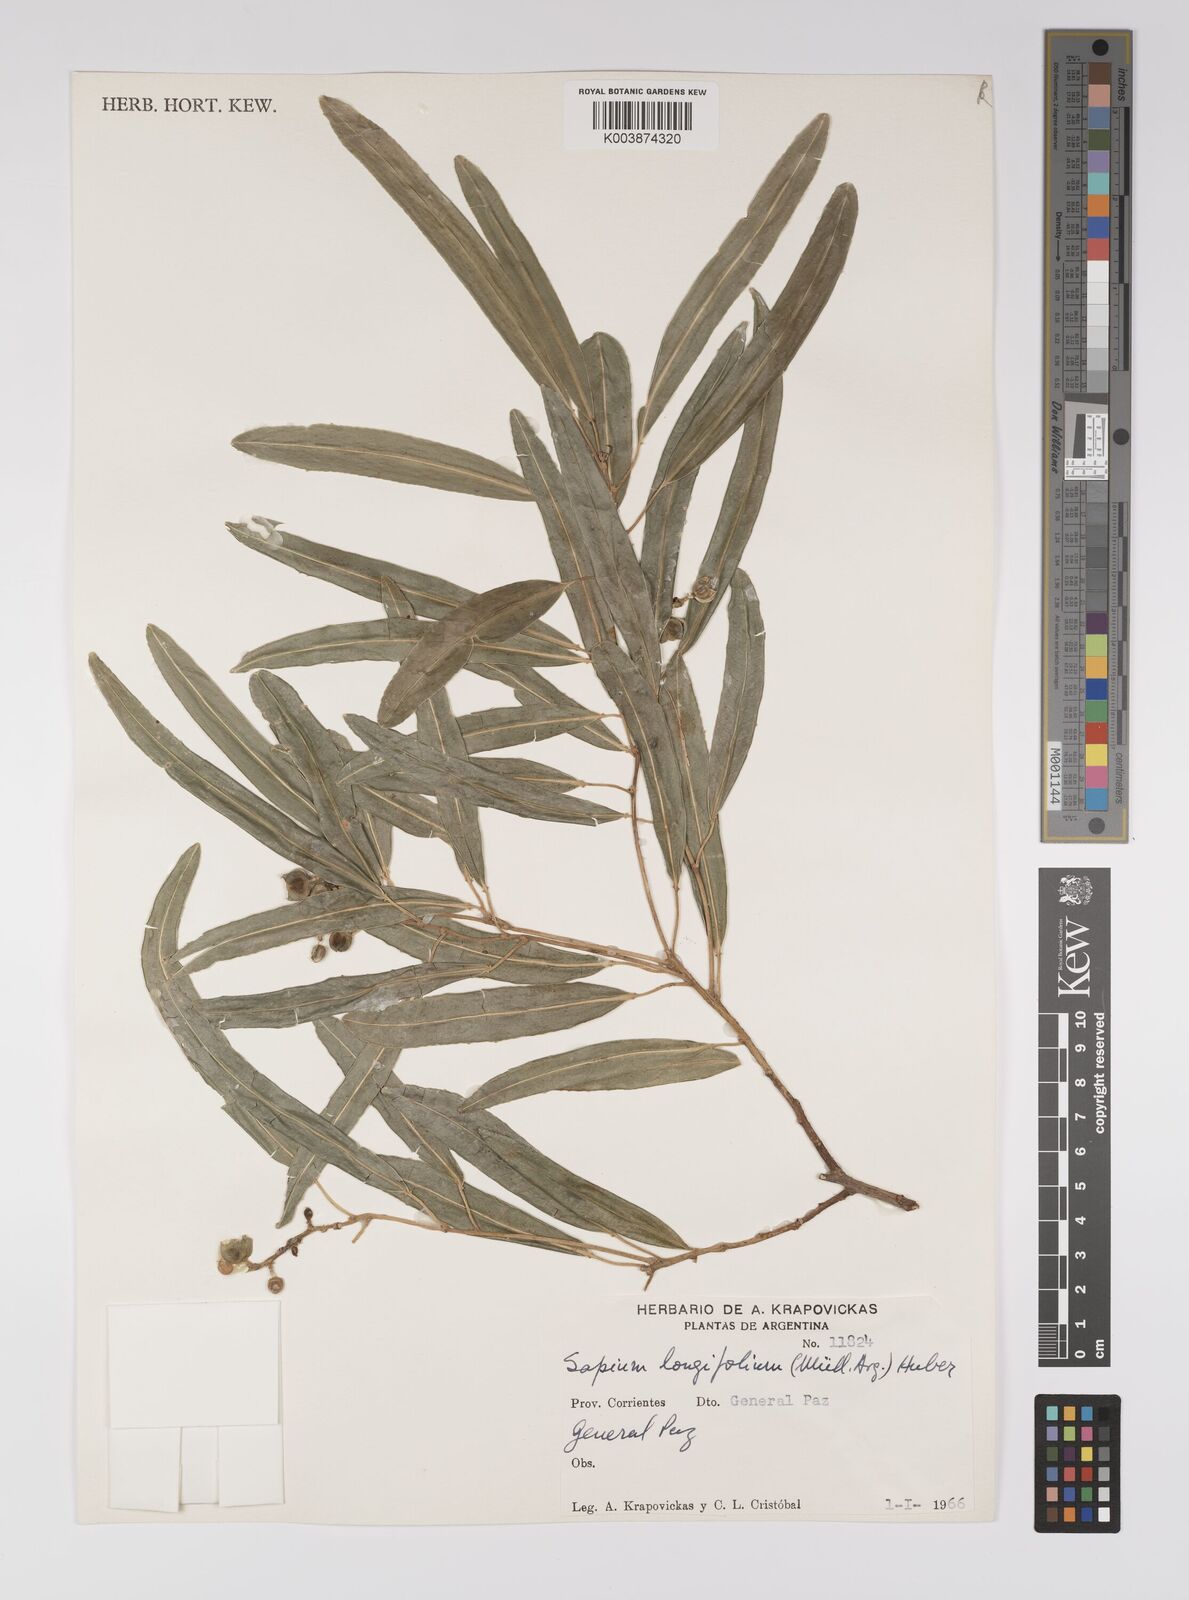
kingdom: Plantae
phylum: Tracheophyta
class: Magnoliopsida
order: Malpighiales
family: Euphorbiaceae
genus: Sapium
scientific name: Sapium haematospermum
